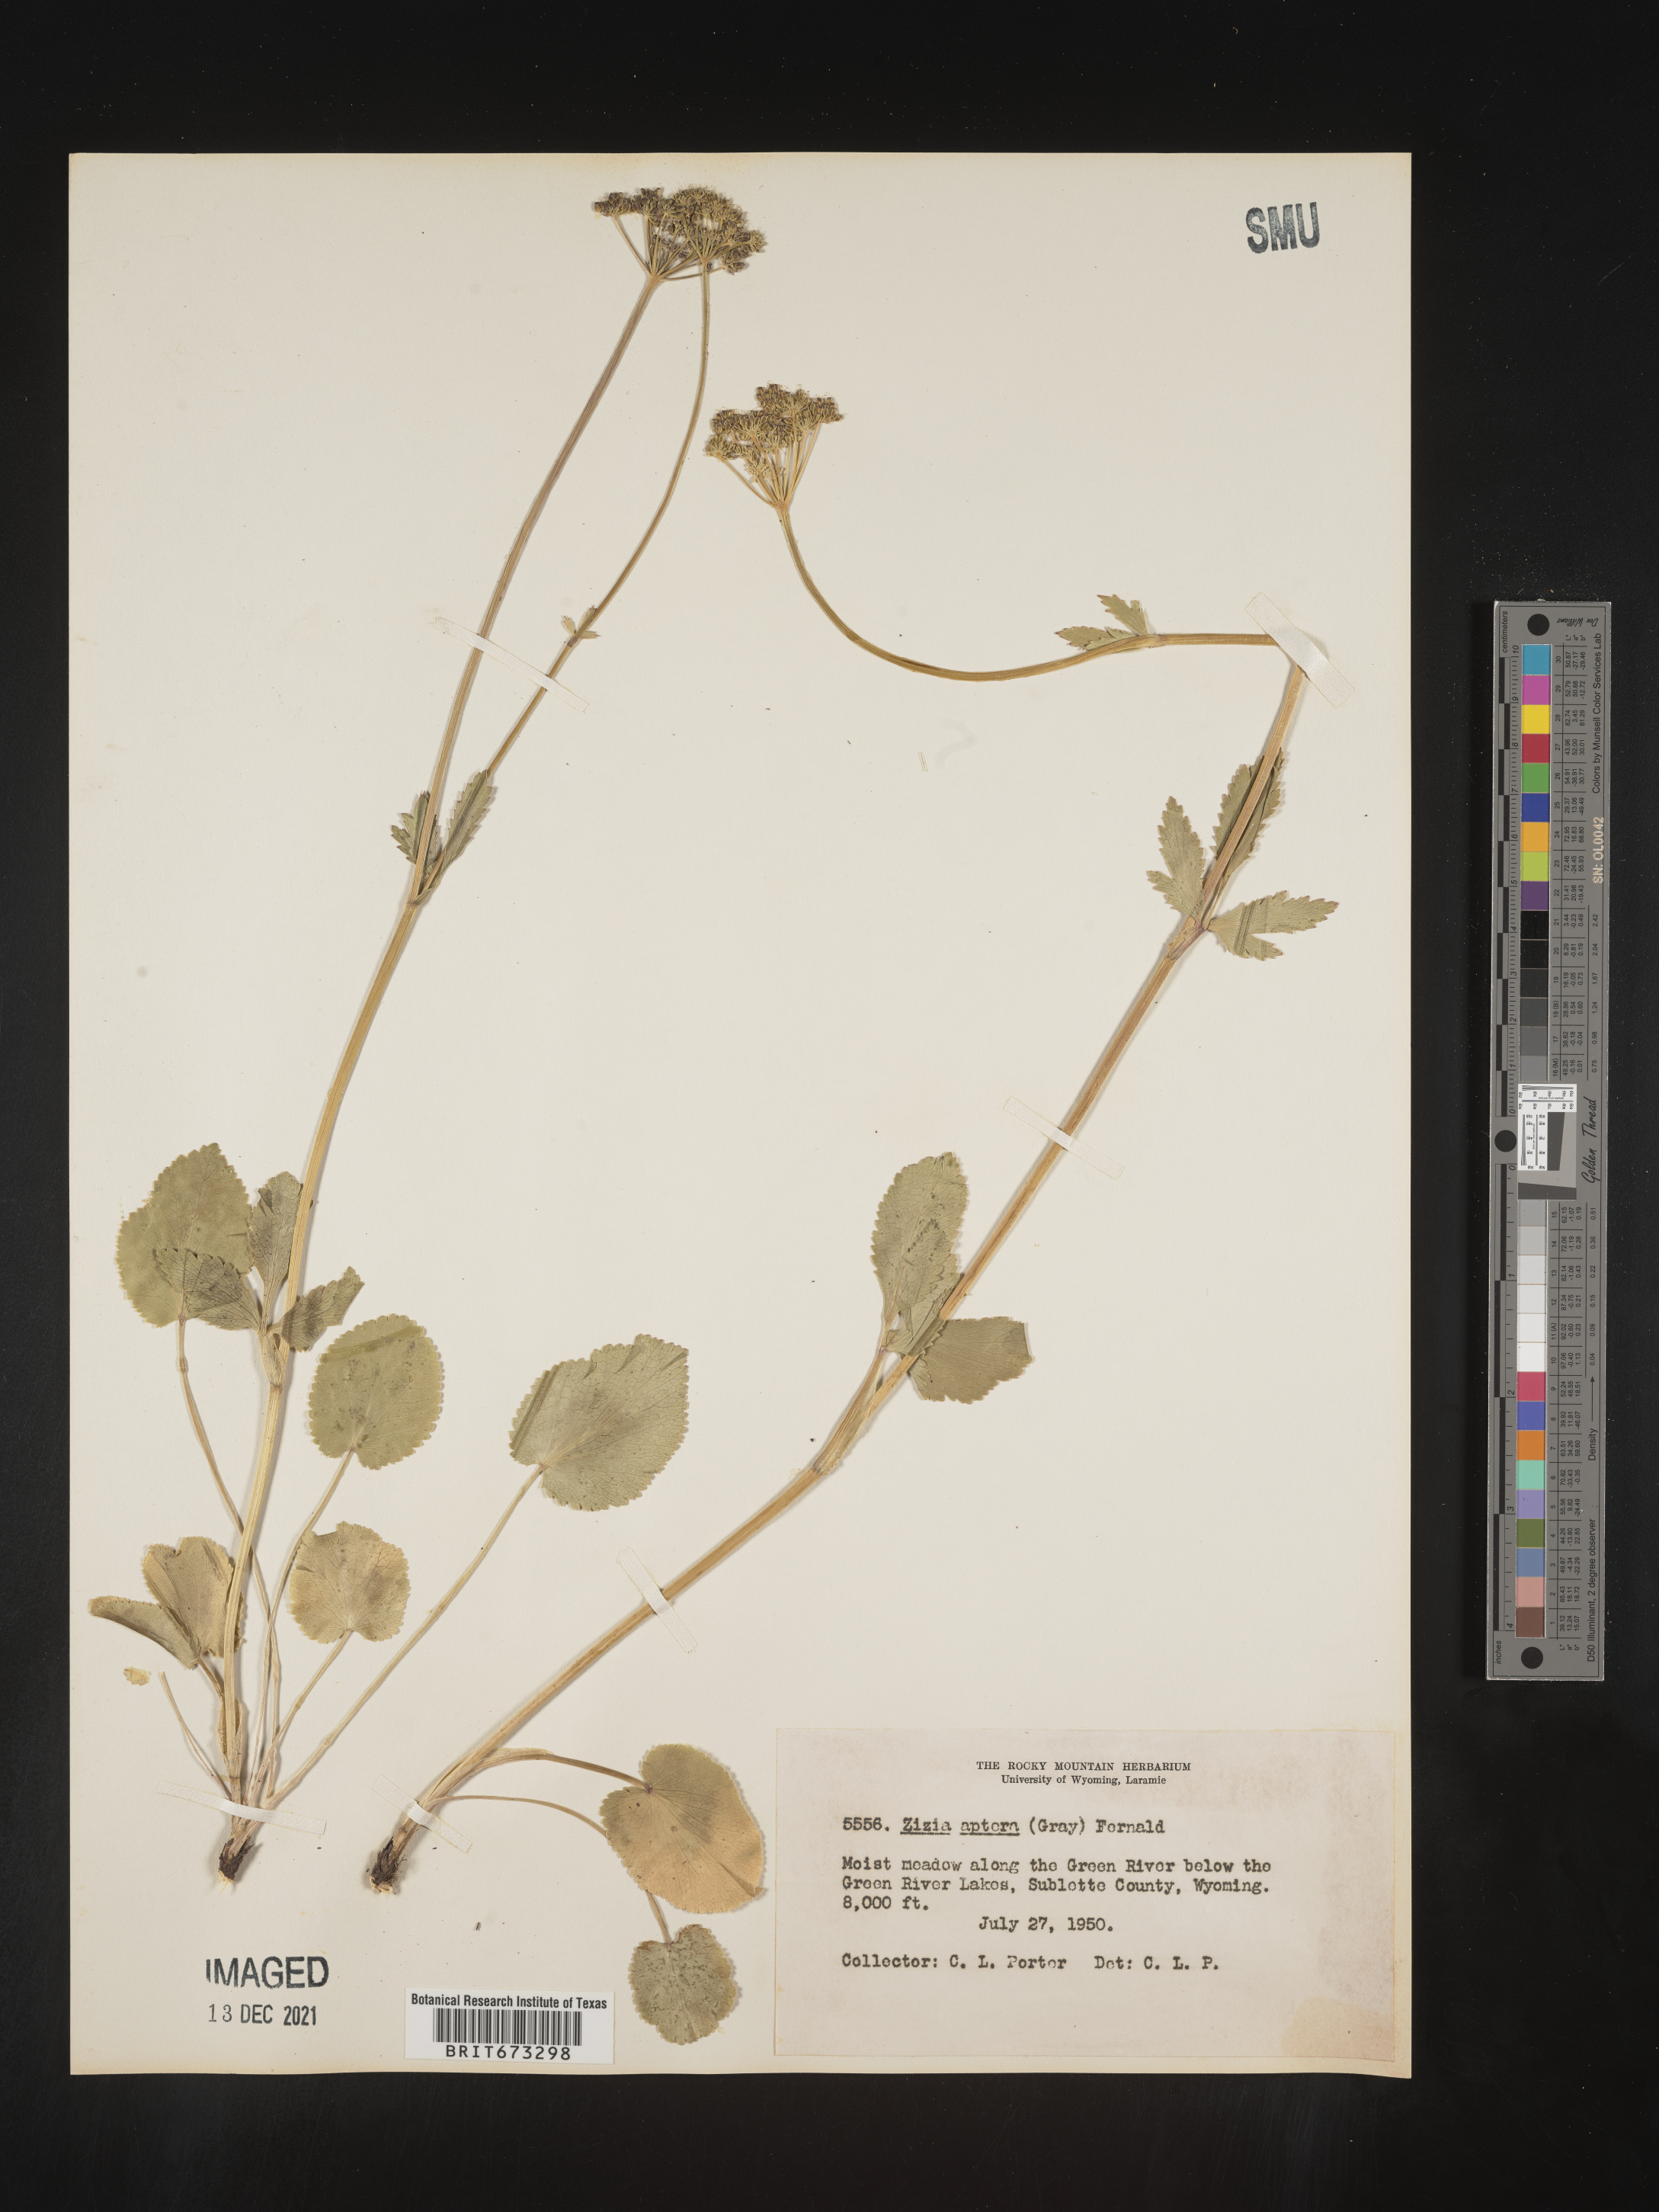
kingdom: Plantae
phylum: Tracheophyta
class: Magnoliopsida
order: Apiales
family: Apiaceae
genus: Zizia
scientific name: Zizia aptera
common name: Heart-leaved alexanders
